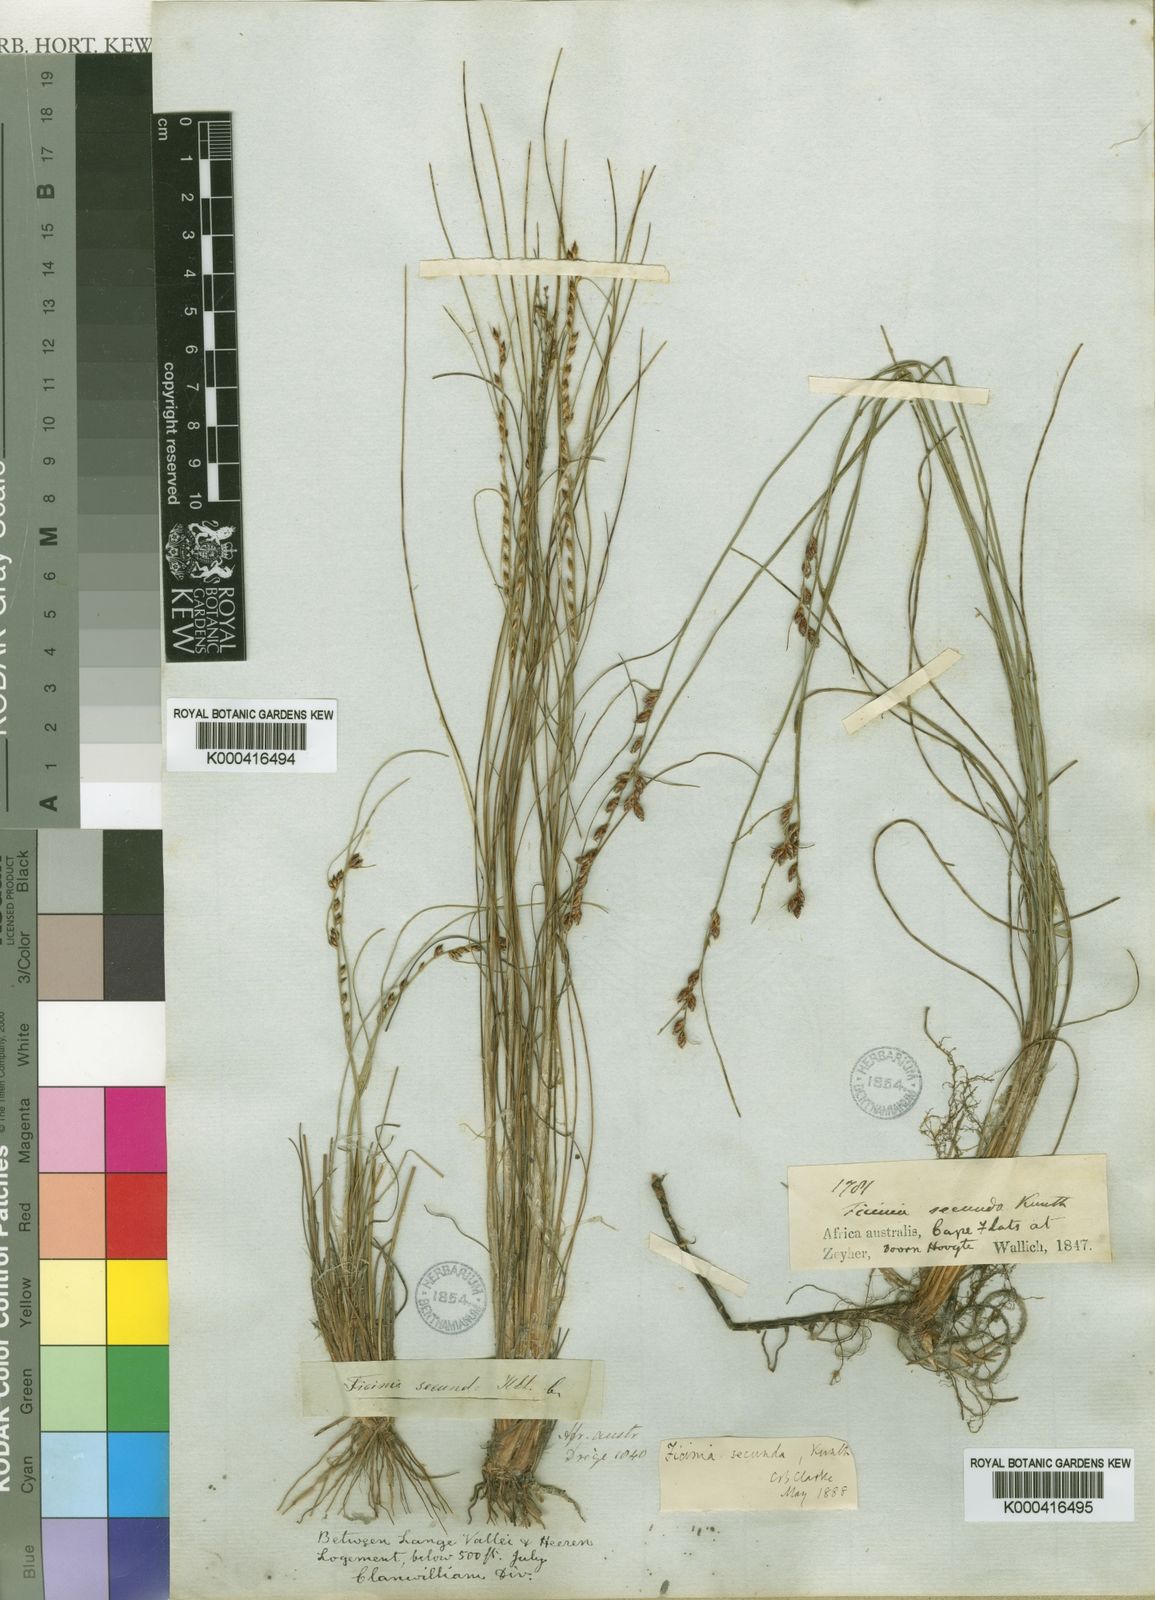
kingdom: Plantae
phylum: Tracheophyta
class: Liliopsida
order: Poales
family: Cyperaceae
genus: Ficinia
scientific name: Ficinia secunda
